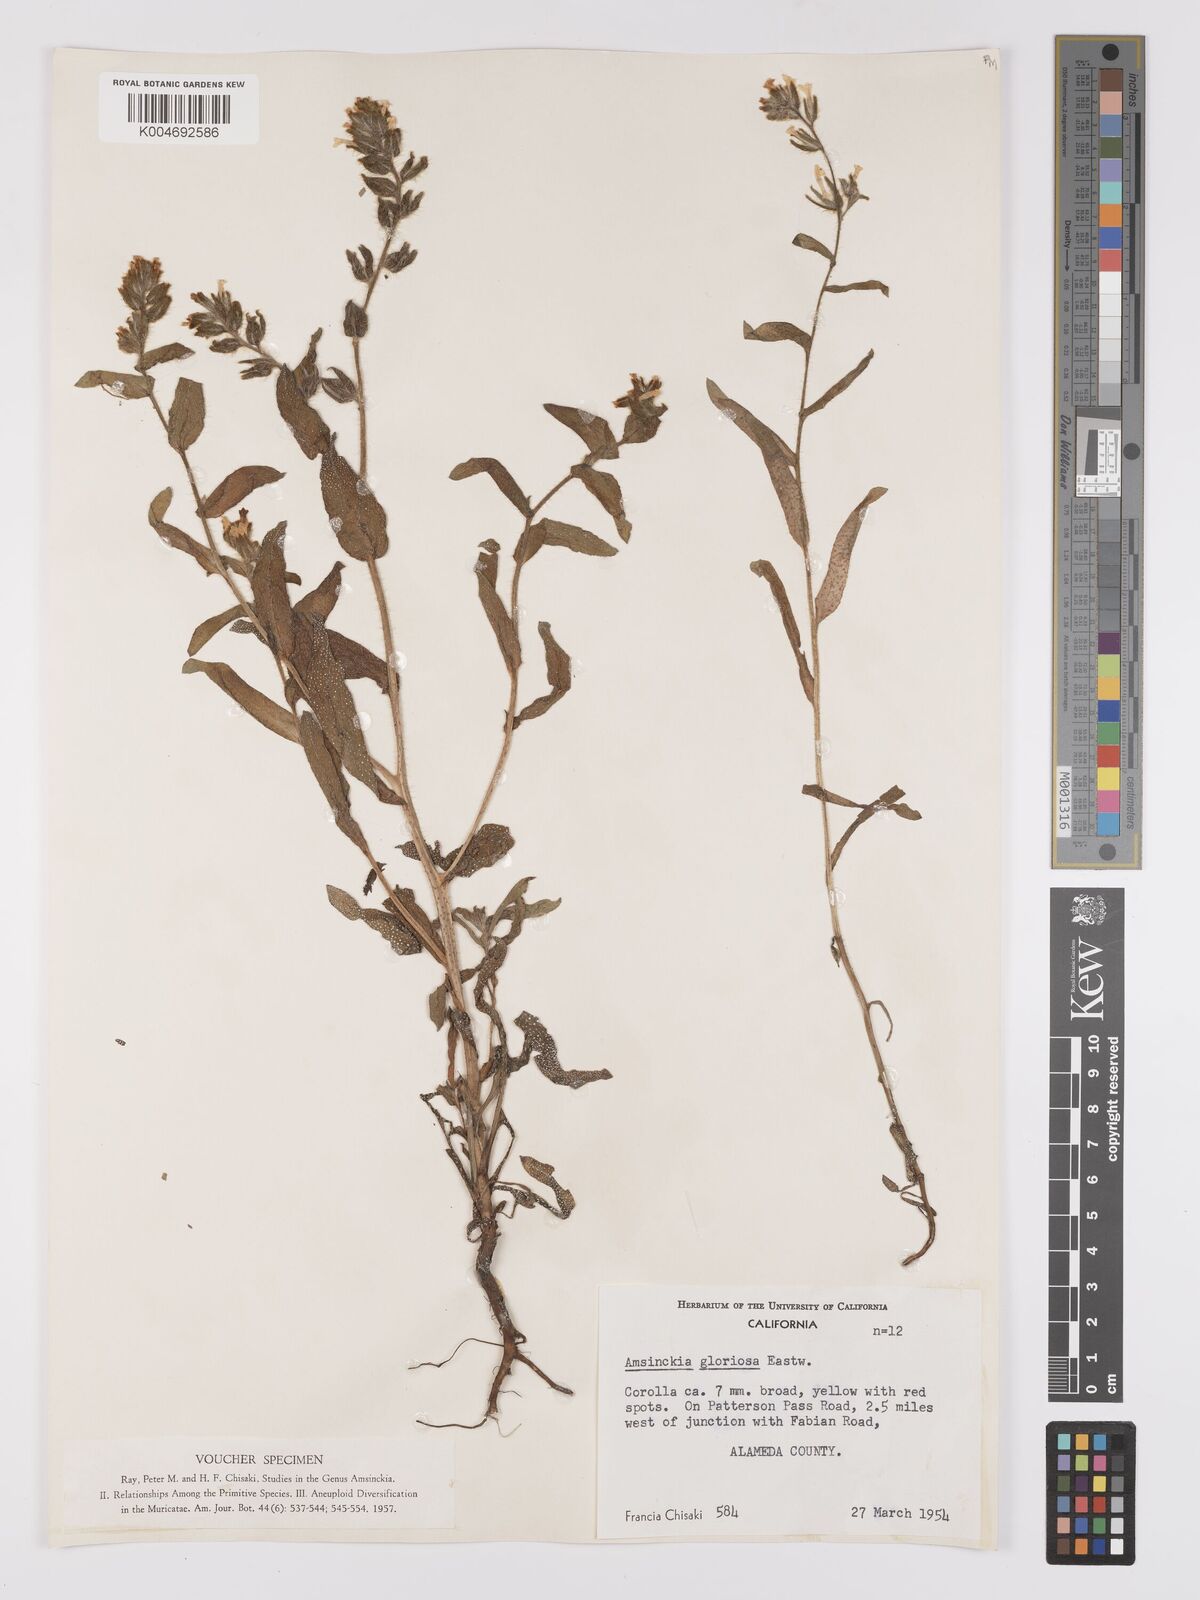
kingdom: Plantae
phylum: Tracheophyta
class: Magnoliopsida
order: Boraginales
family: Boraginaceae
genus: Amsinckia
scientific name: Amsinckia tessellata
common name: Tessellate fiddleneck
